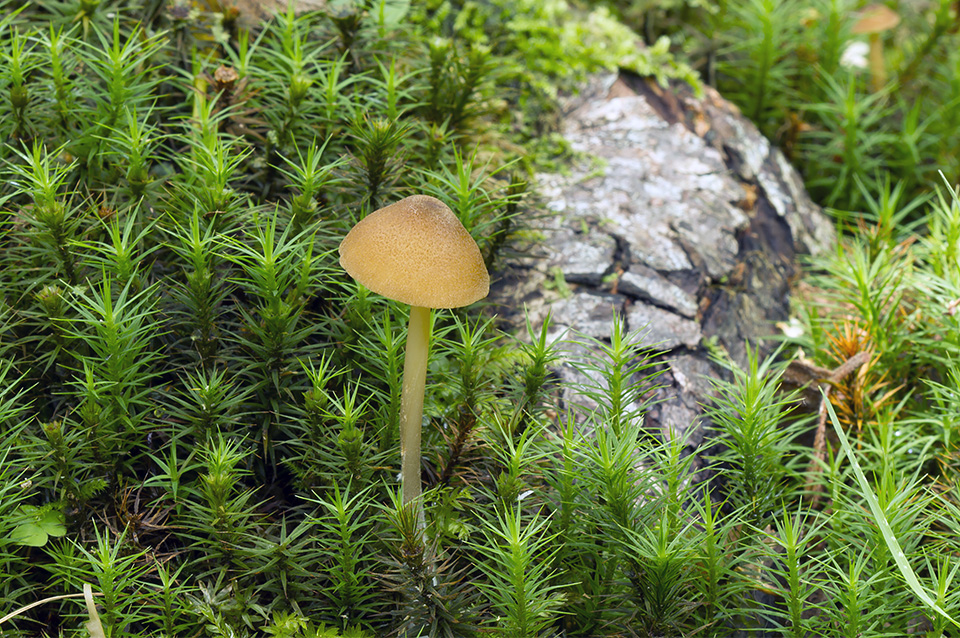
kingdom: Fungi
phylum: Basidiomycota
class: Agaricomycetes
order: Agaricales
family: Entolomataceae
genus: Entoloma
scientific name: Entoloma formosum
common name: brungul rødblad
